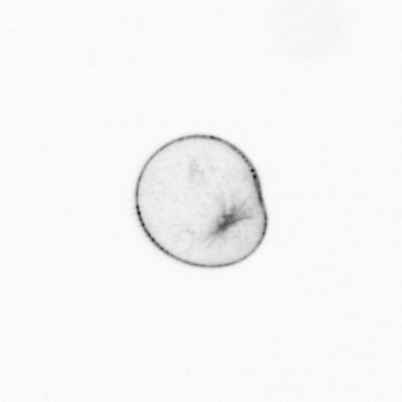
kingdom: Chromista
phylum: Myzozoa
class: Dinophyceae
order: Noctilucales
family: Noctilucaceae
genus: Noctiluca
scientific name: Noctiluca scintillans
